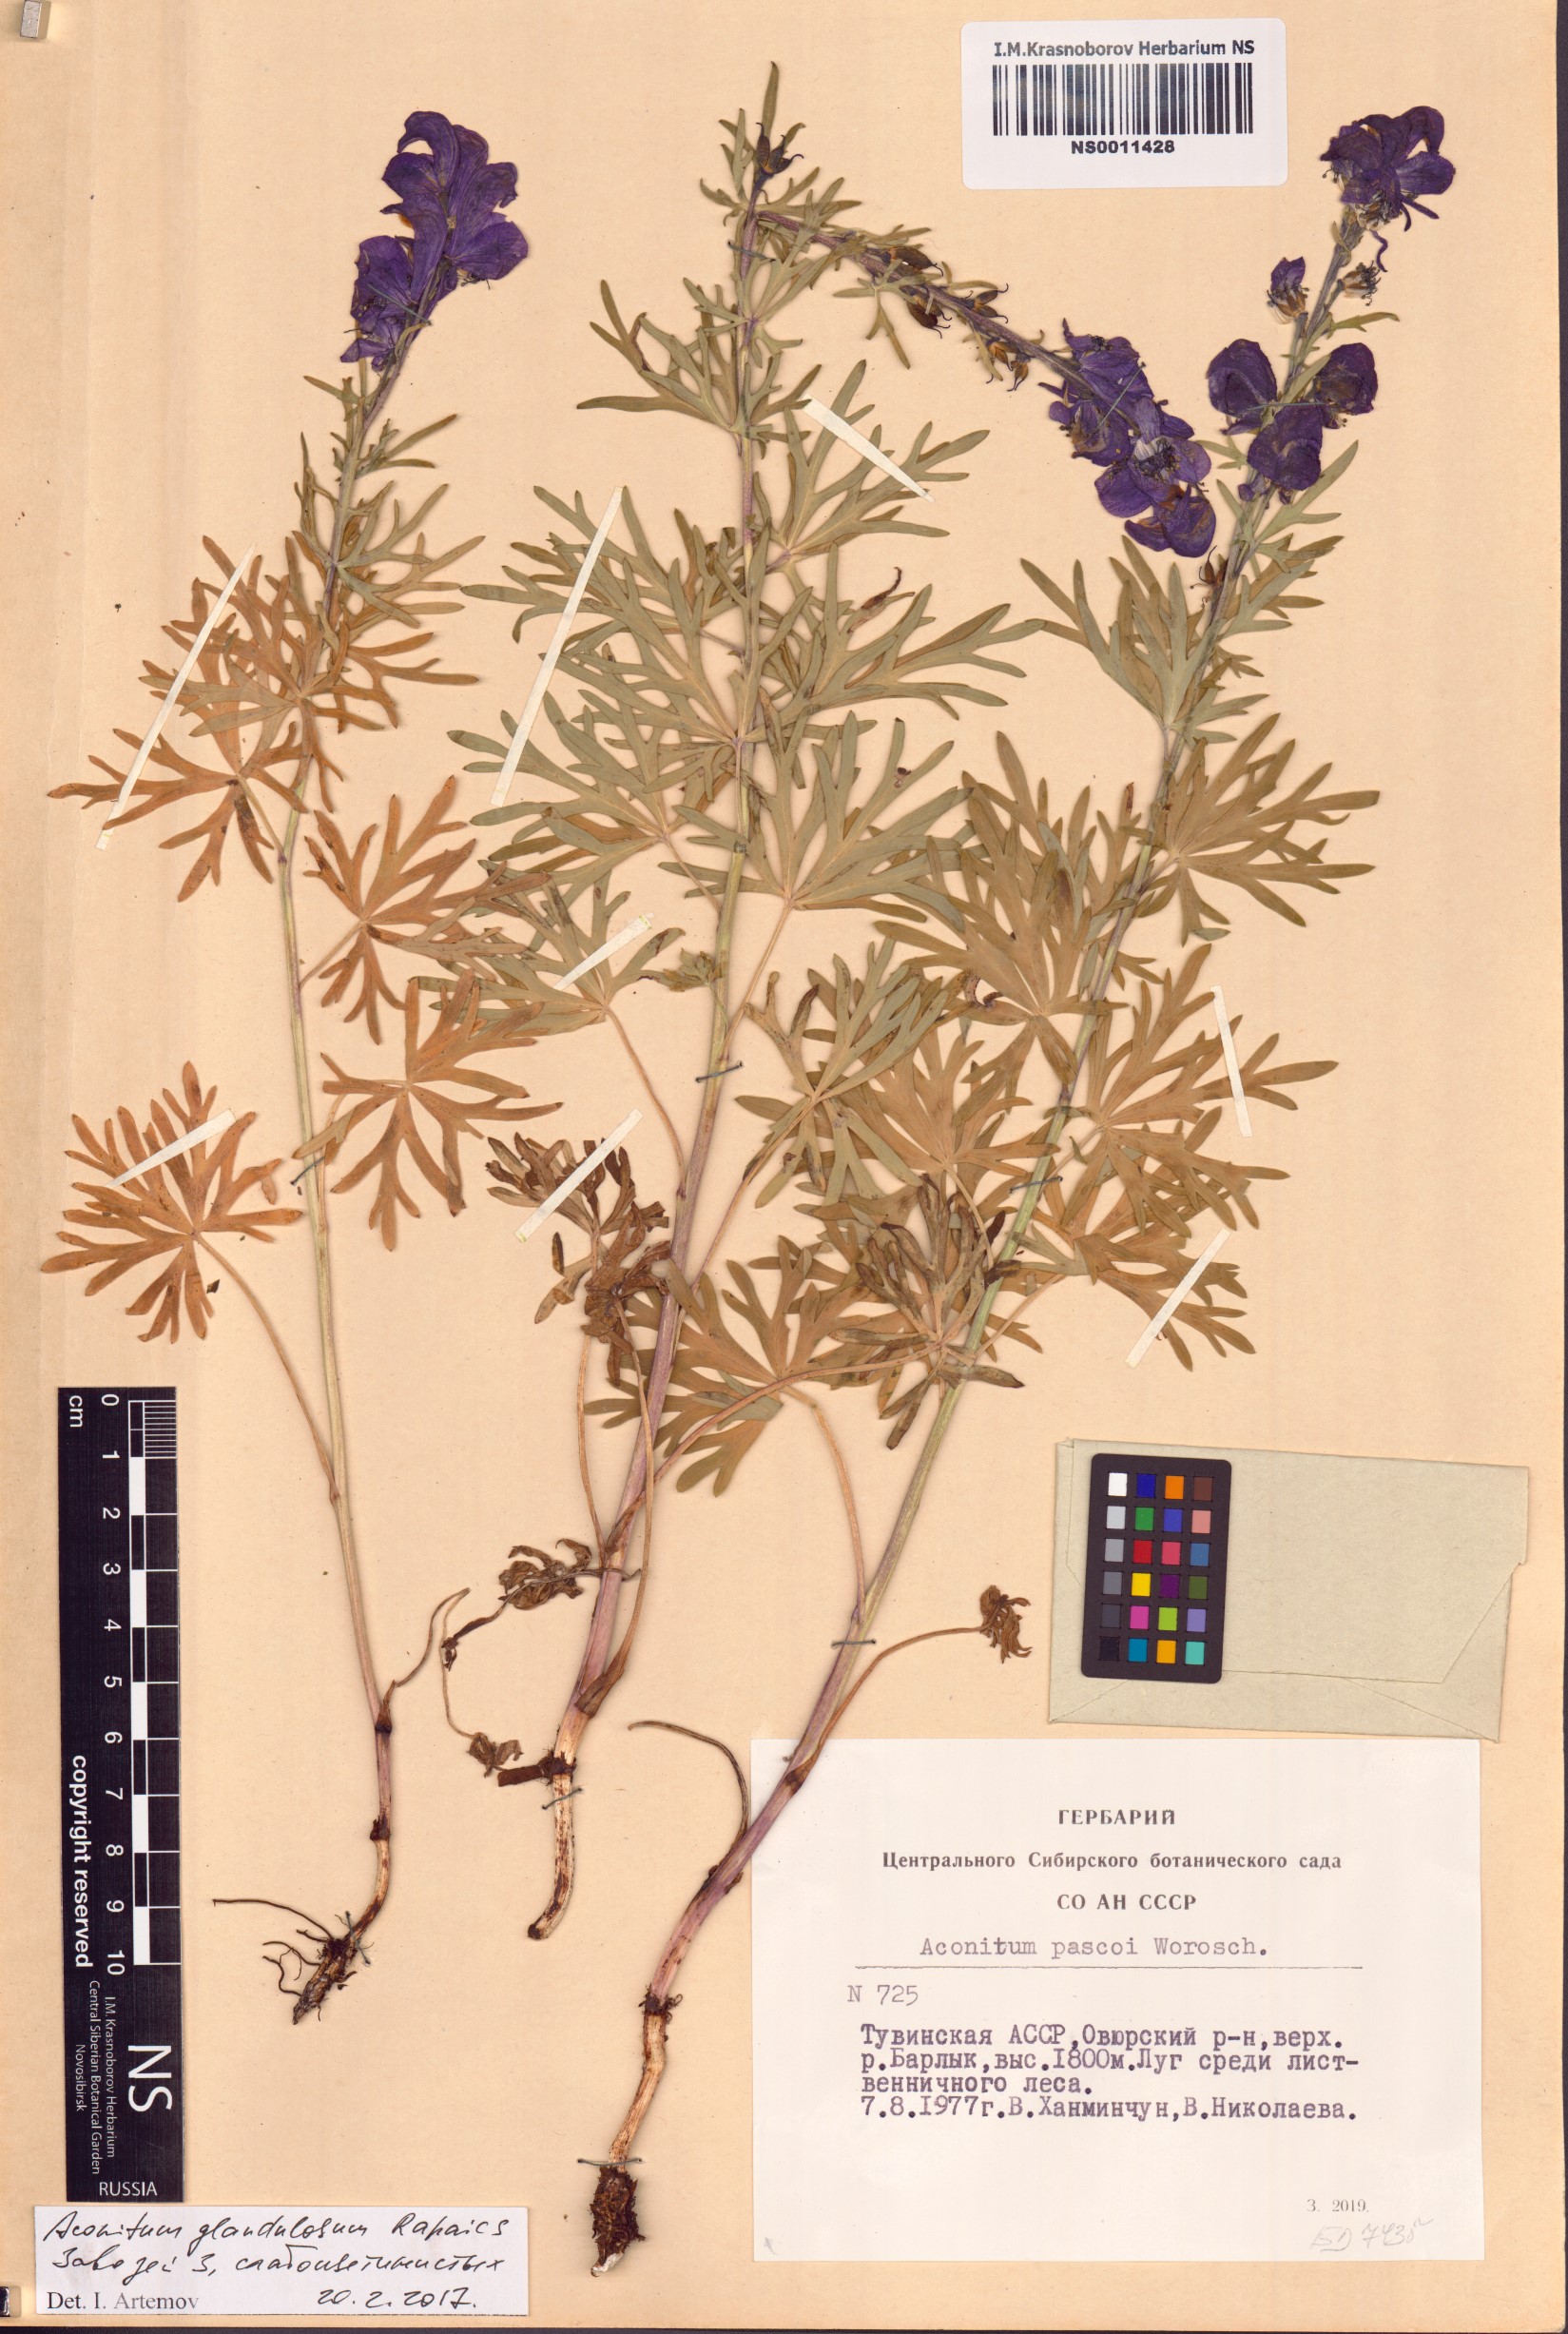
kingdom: Plantae
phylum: Tracheophyta
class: Magnoliopsida
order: Ranunculales
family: Ranunculaceae
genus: Aconitum
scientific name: Aconitum glandulosum
